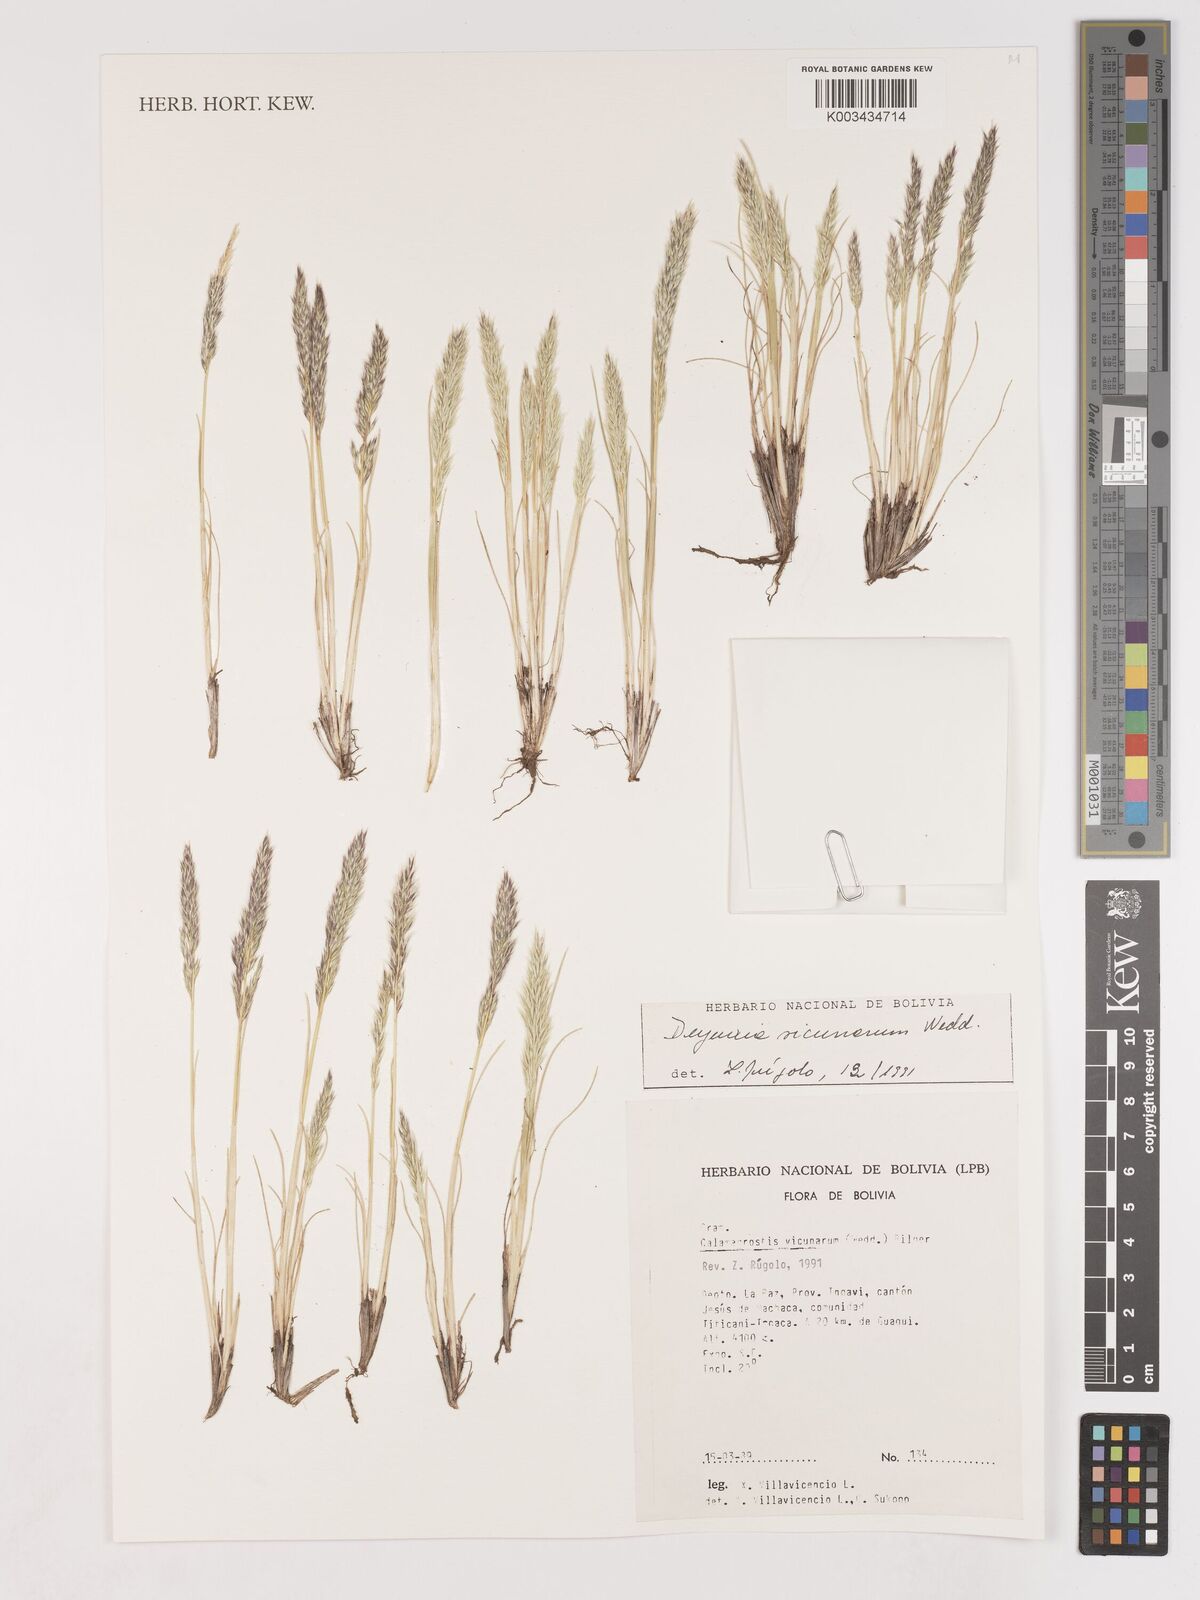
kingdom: Plantae
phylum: Tracheophyta
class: Liliopsida
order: Poales
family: Poaceae
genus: Cinnagrostis
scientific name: Cinnagrostis vicunarum
